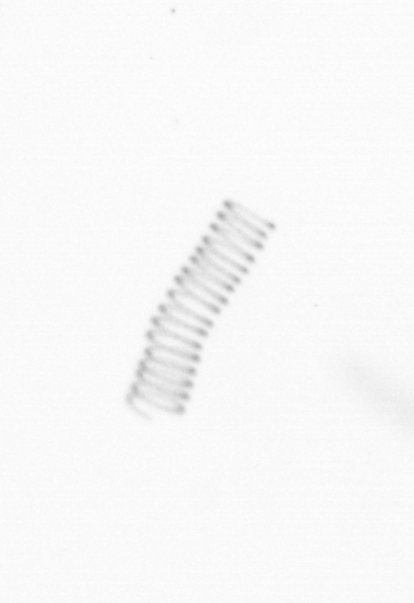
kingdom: Chromista
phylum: Ochrophyta
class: Bacillariophyceae
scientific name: Bacillariophyceae
